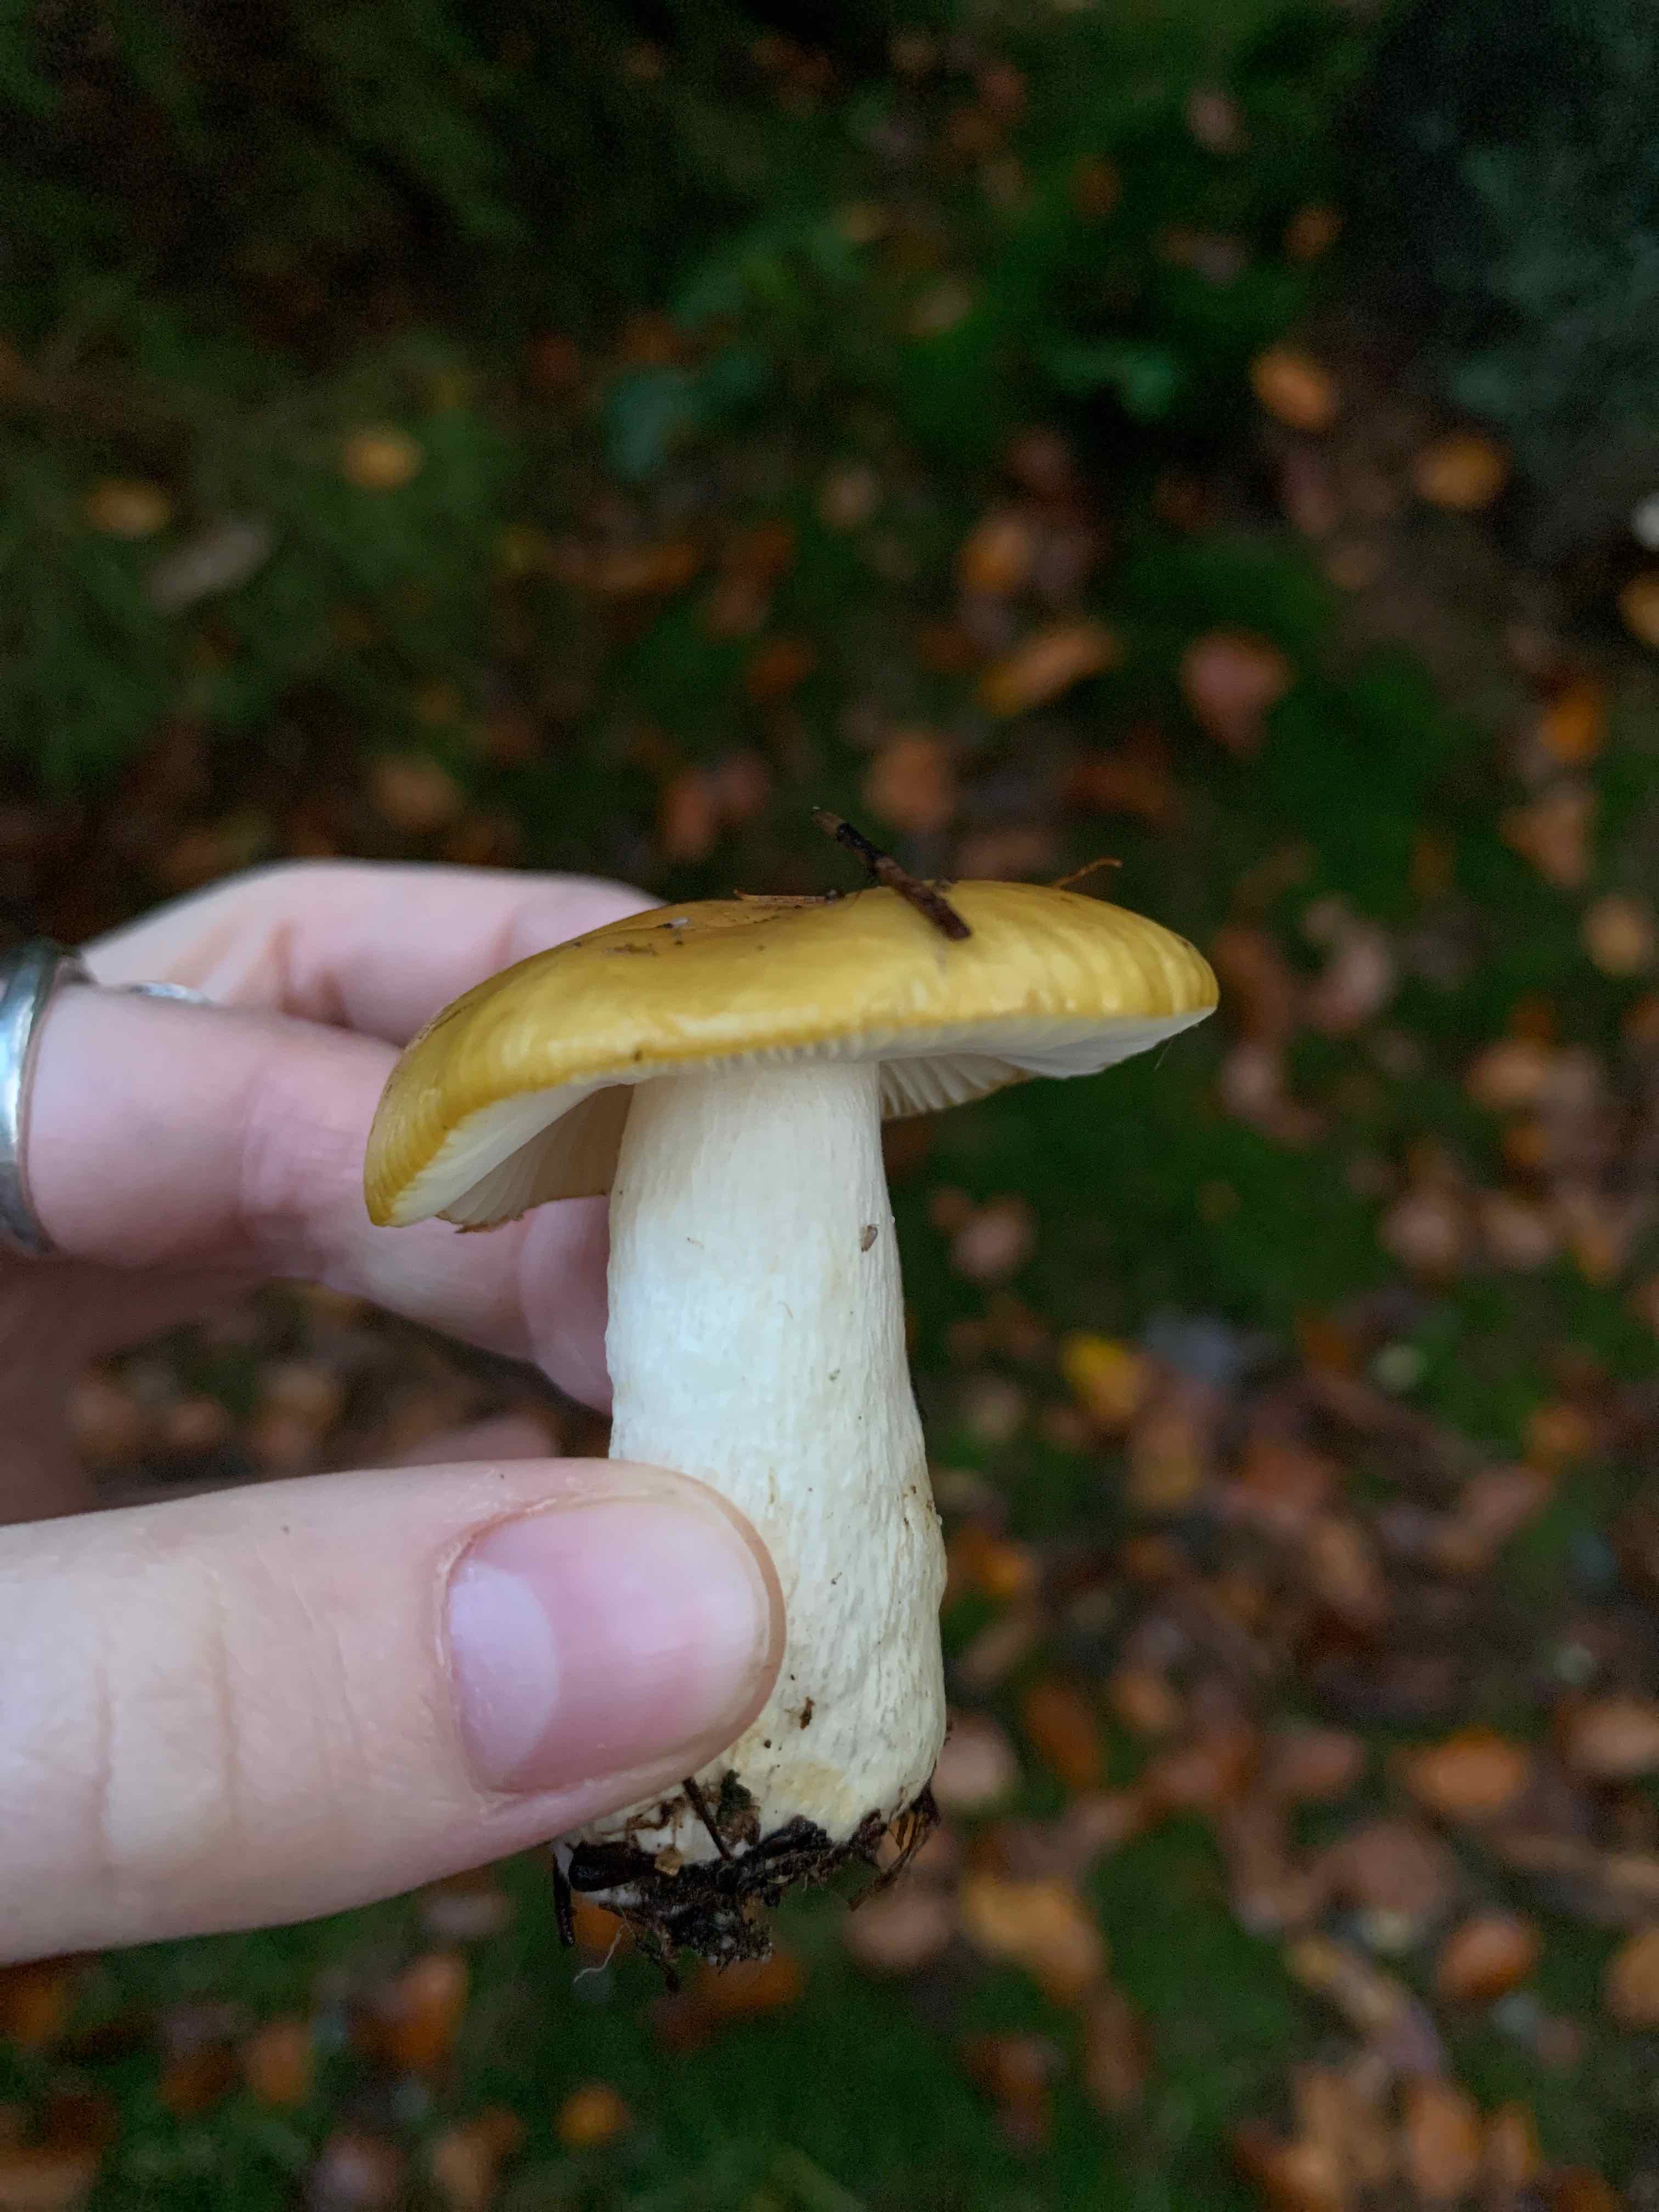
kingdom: Fungi
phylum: Basidiomycota
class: Agaricomycetes
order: Russulales
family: Russulaceae
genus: Russula
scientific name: Russula ochroleuca
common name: okkergul skørhat
